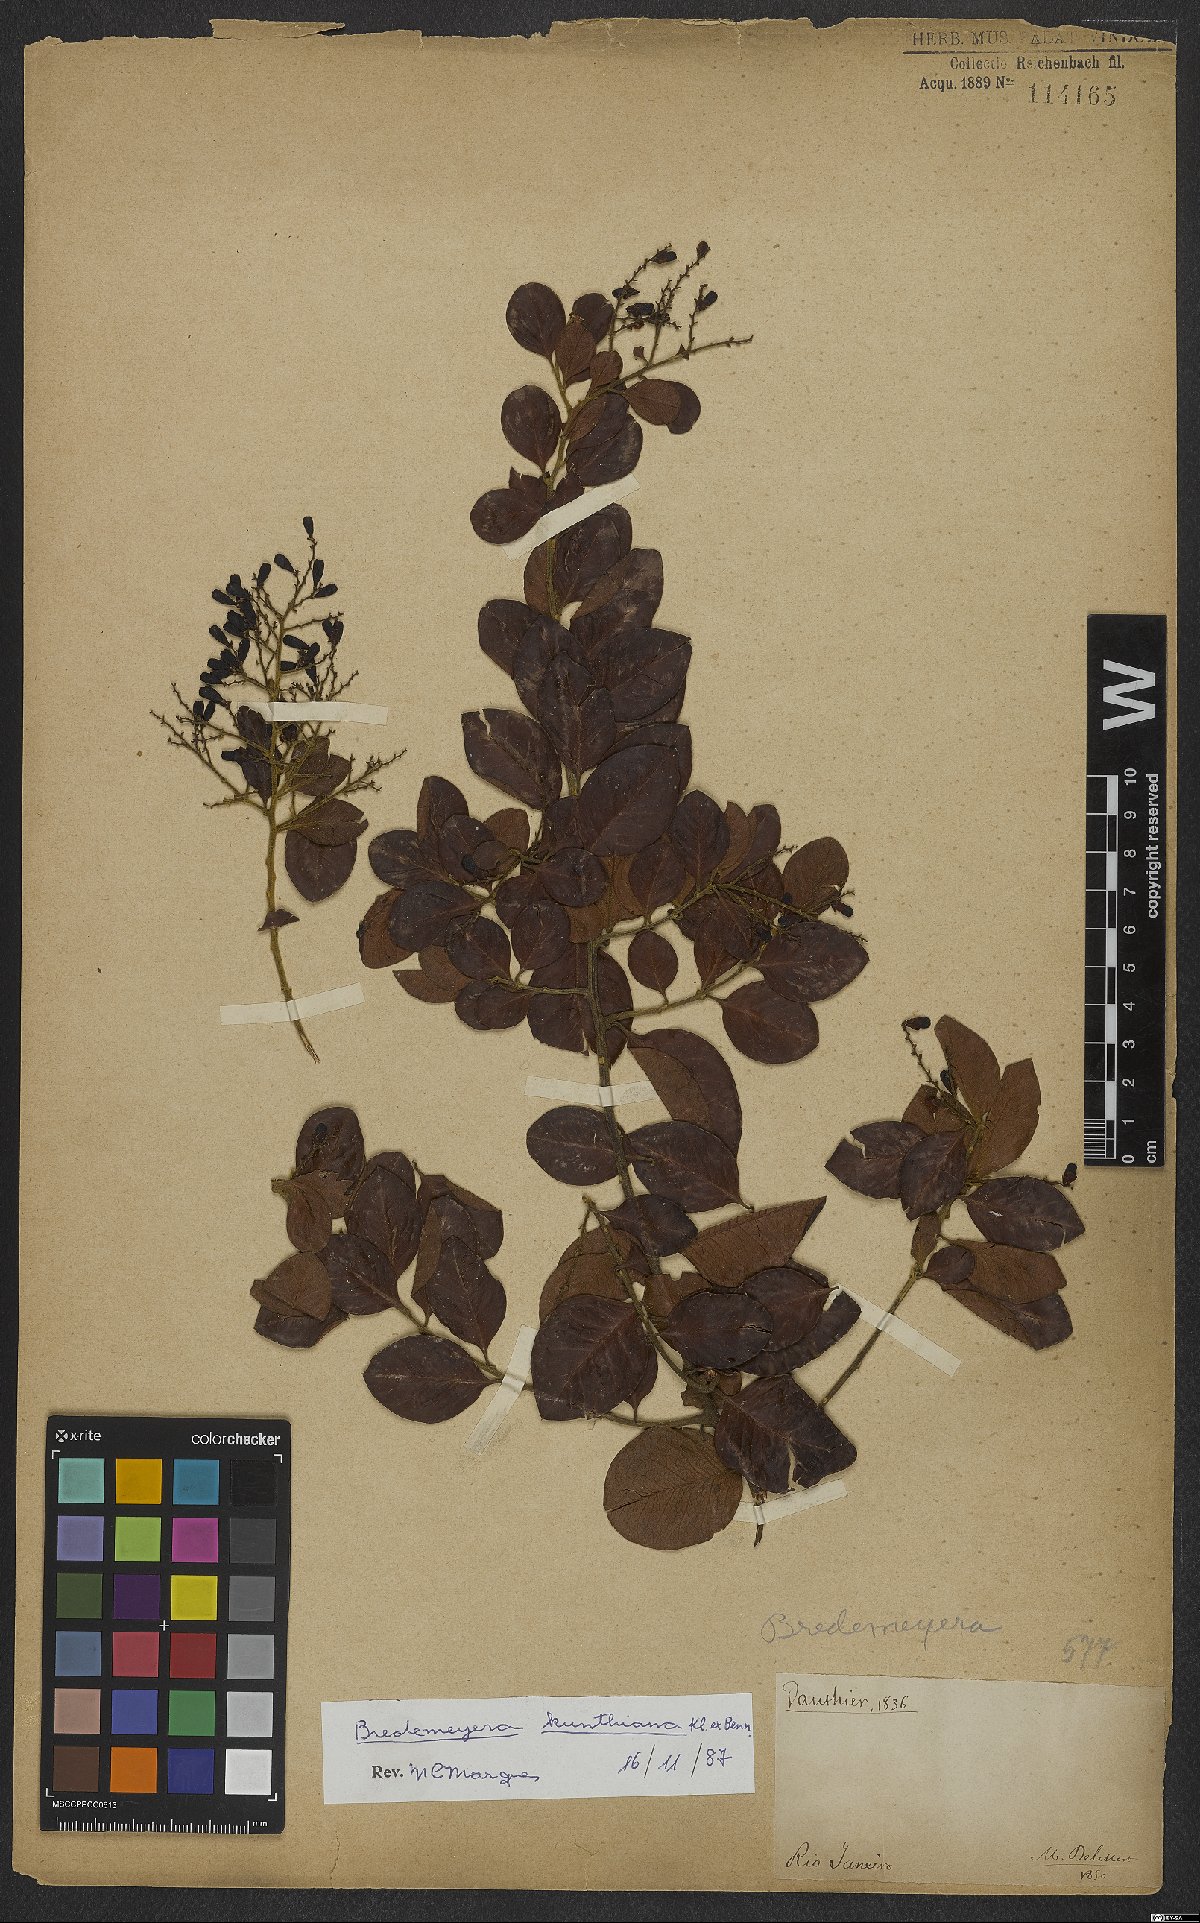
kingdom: Plantae
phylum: Tracheophyta
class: Magnoliopsida
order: Fabales
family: Polygalaceae
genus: Bredemeyera
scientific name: Bredemeyera
